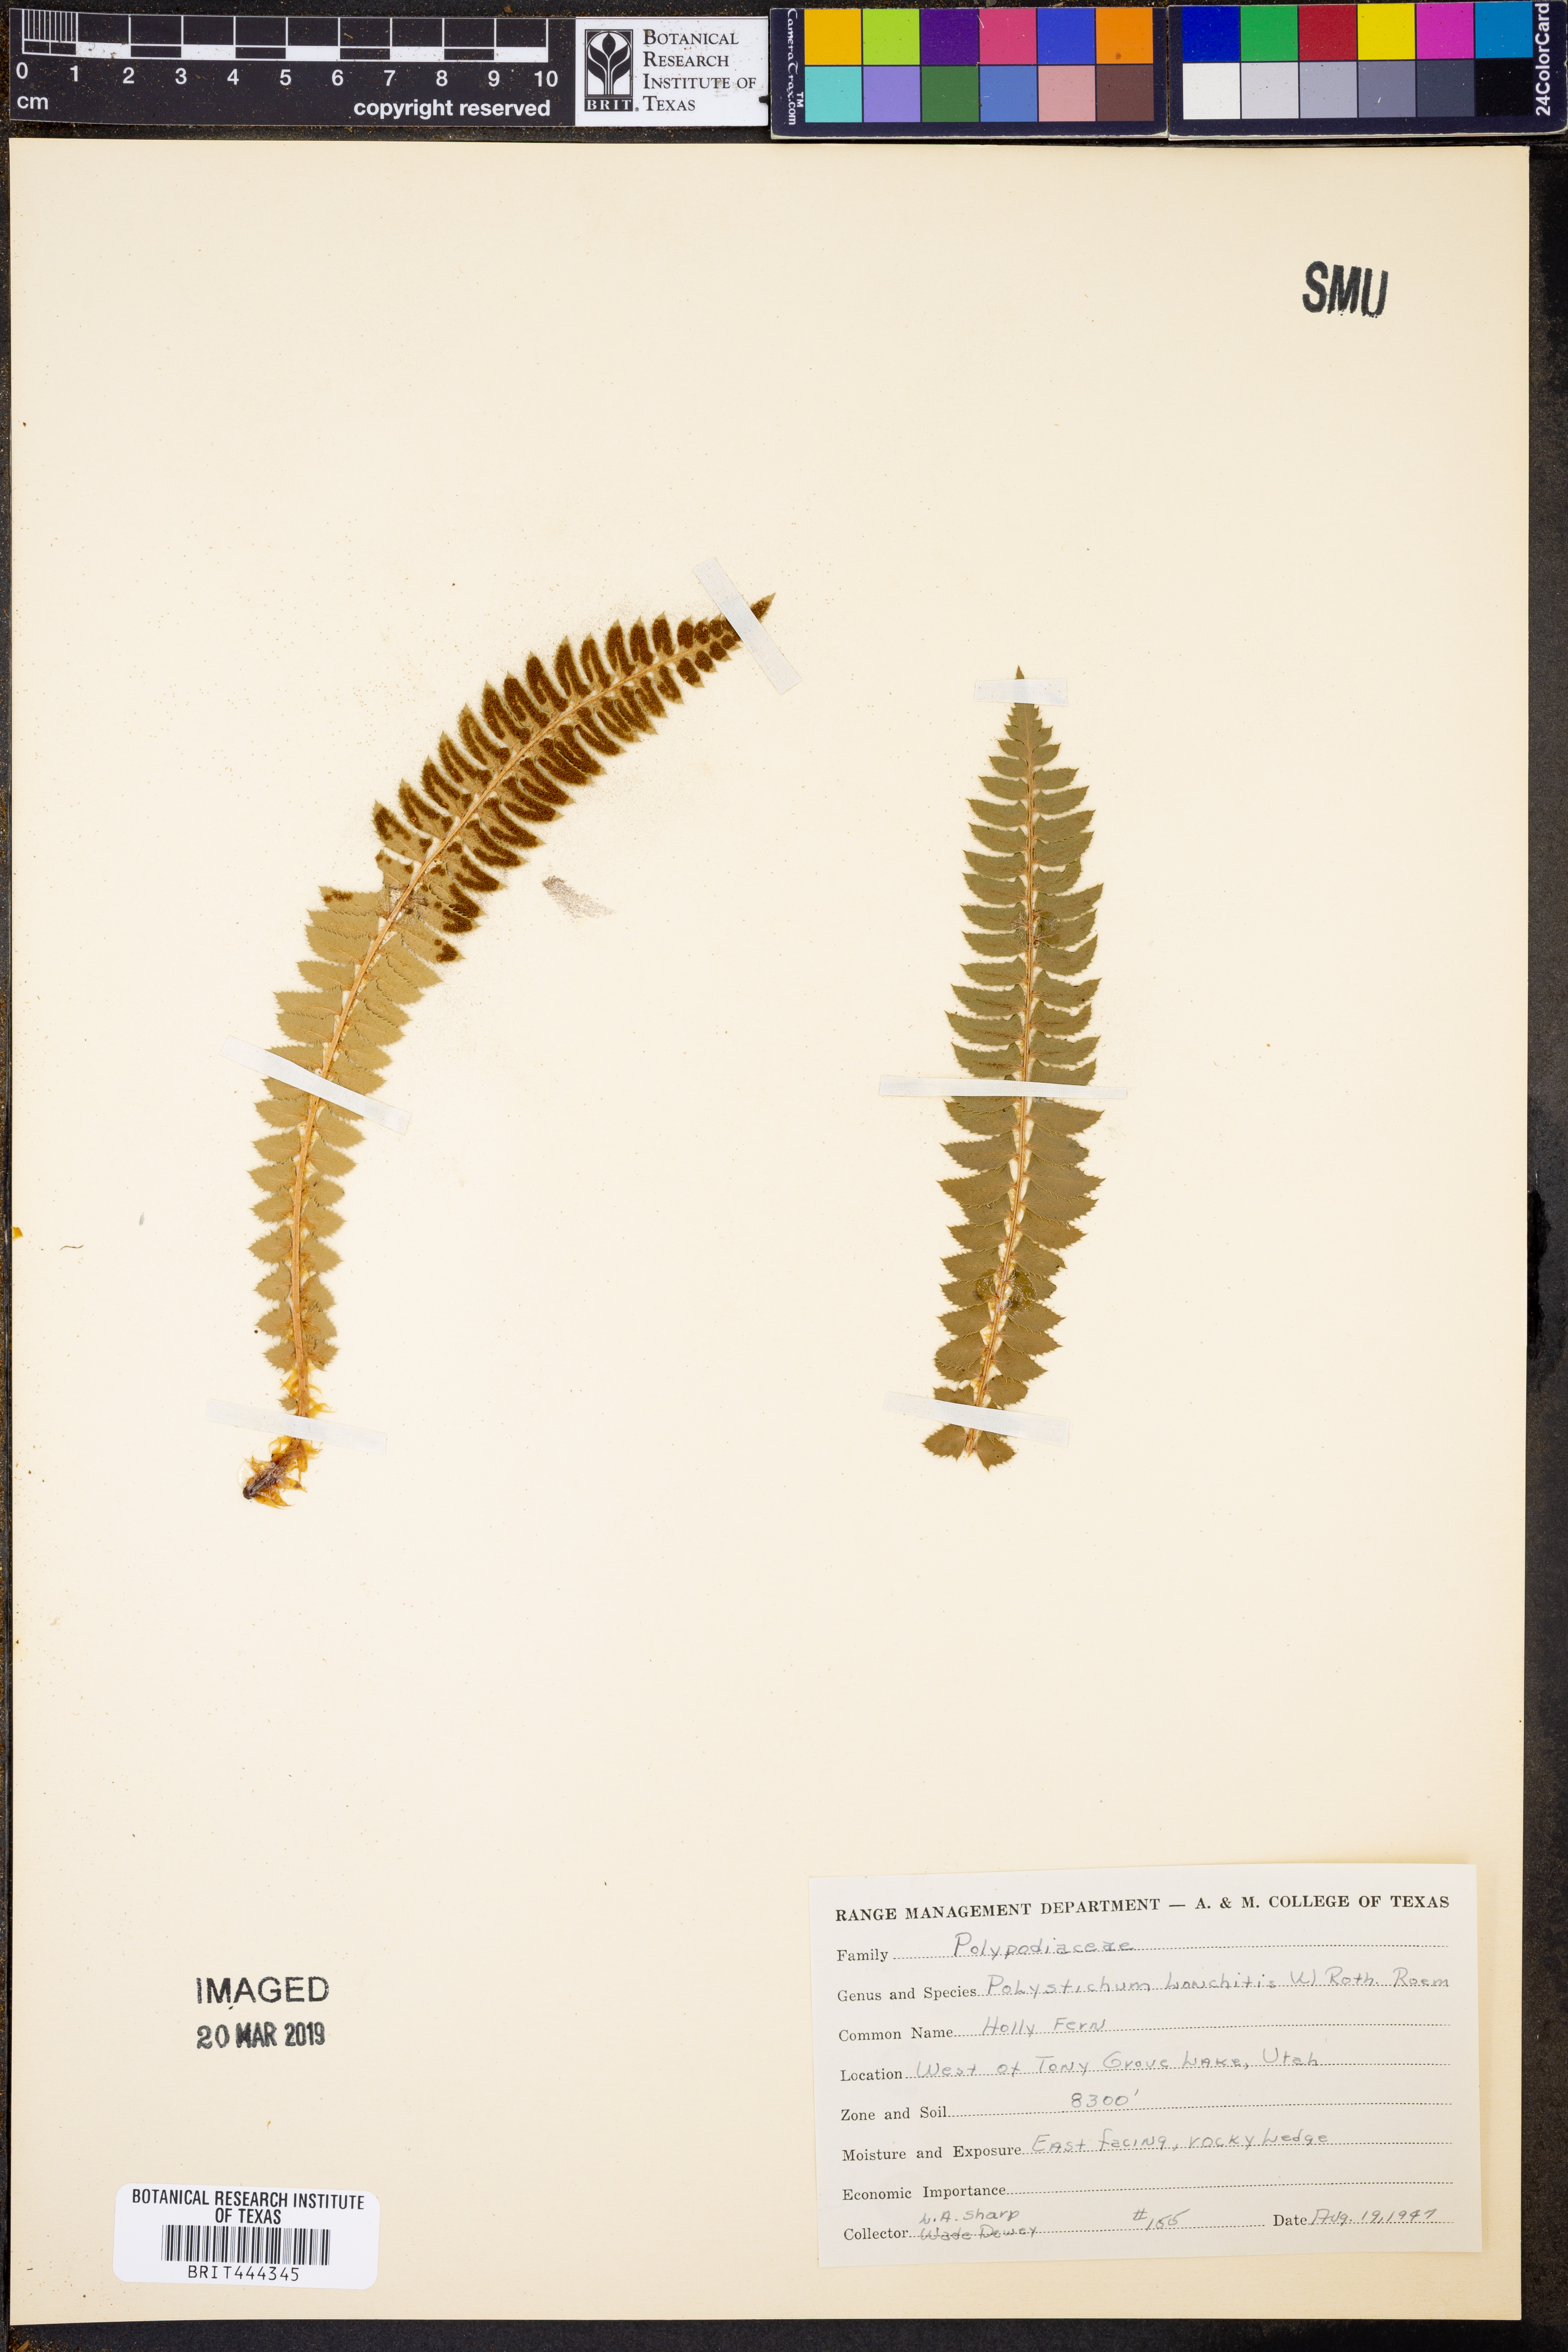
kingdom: Plantae
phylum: Tracheophyta
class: Polypodiopsida
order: Polypodiales
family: Dryopteridaceae
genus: Polystichum
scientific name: Polystichum lonchitis
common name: Holly fern
